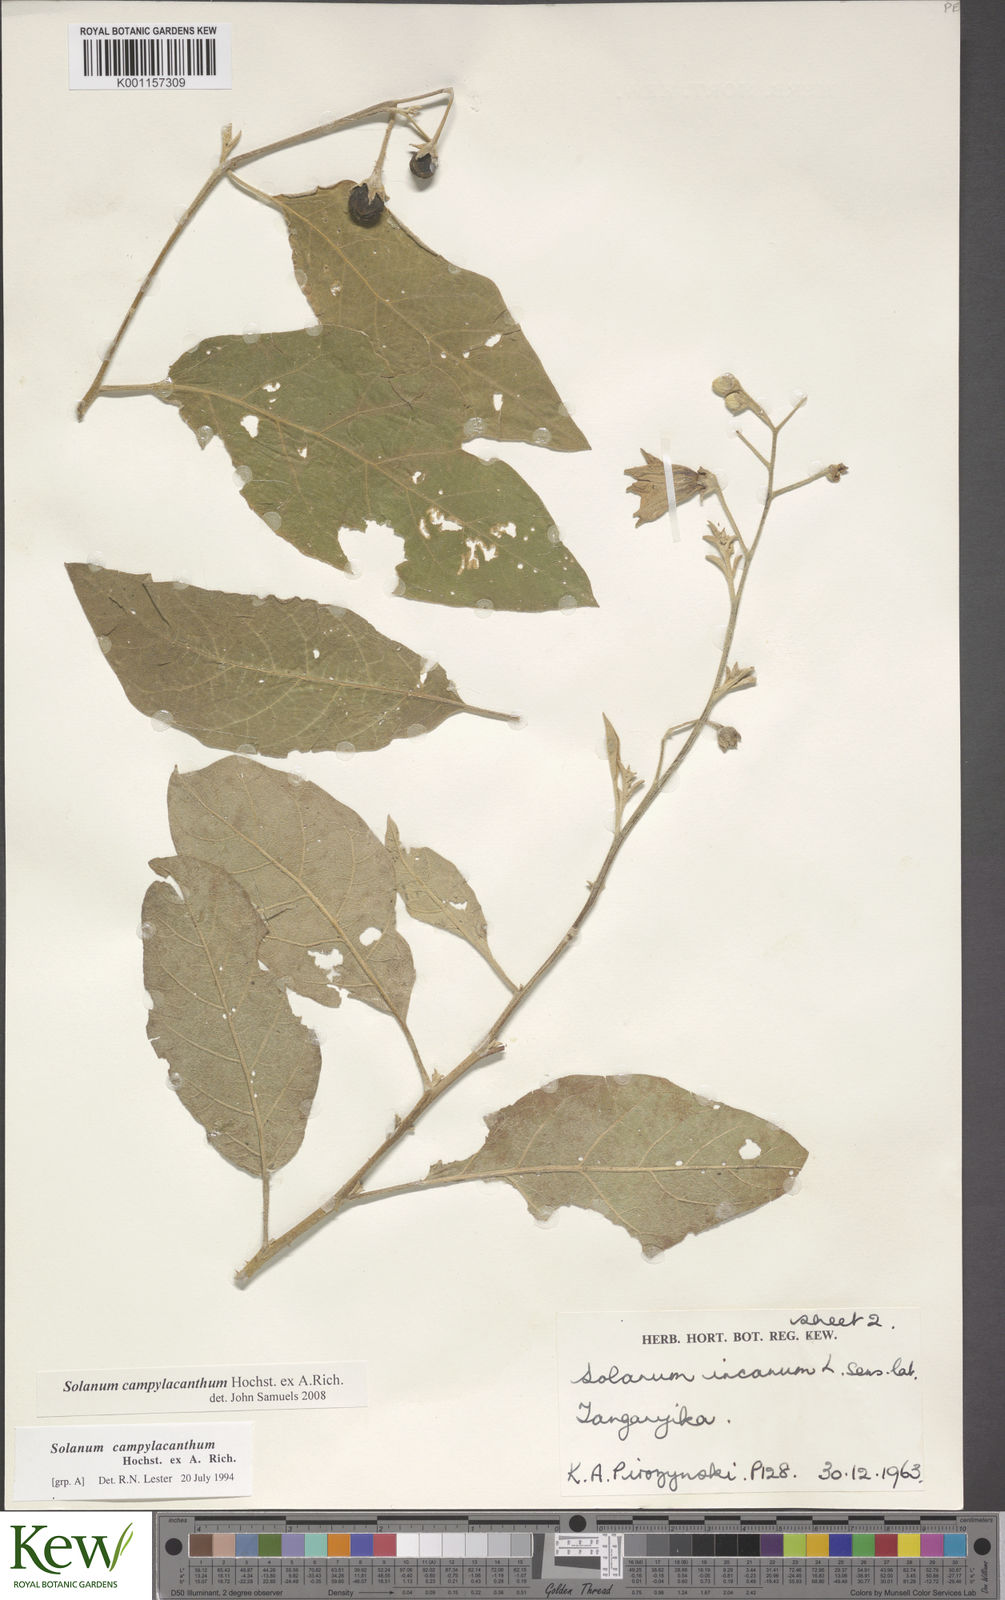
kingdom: Plantae
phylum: Tracheophyta
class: Magnoliopsida
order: Solanales
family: Solanaceae
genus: Solanum
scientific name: Solanum campylacanthum
